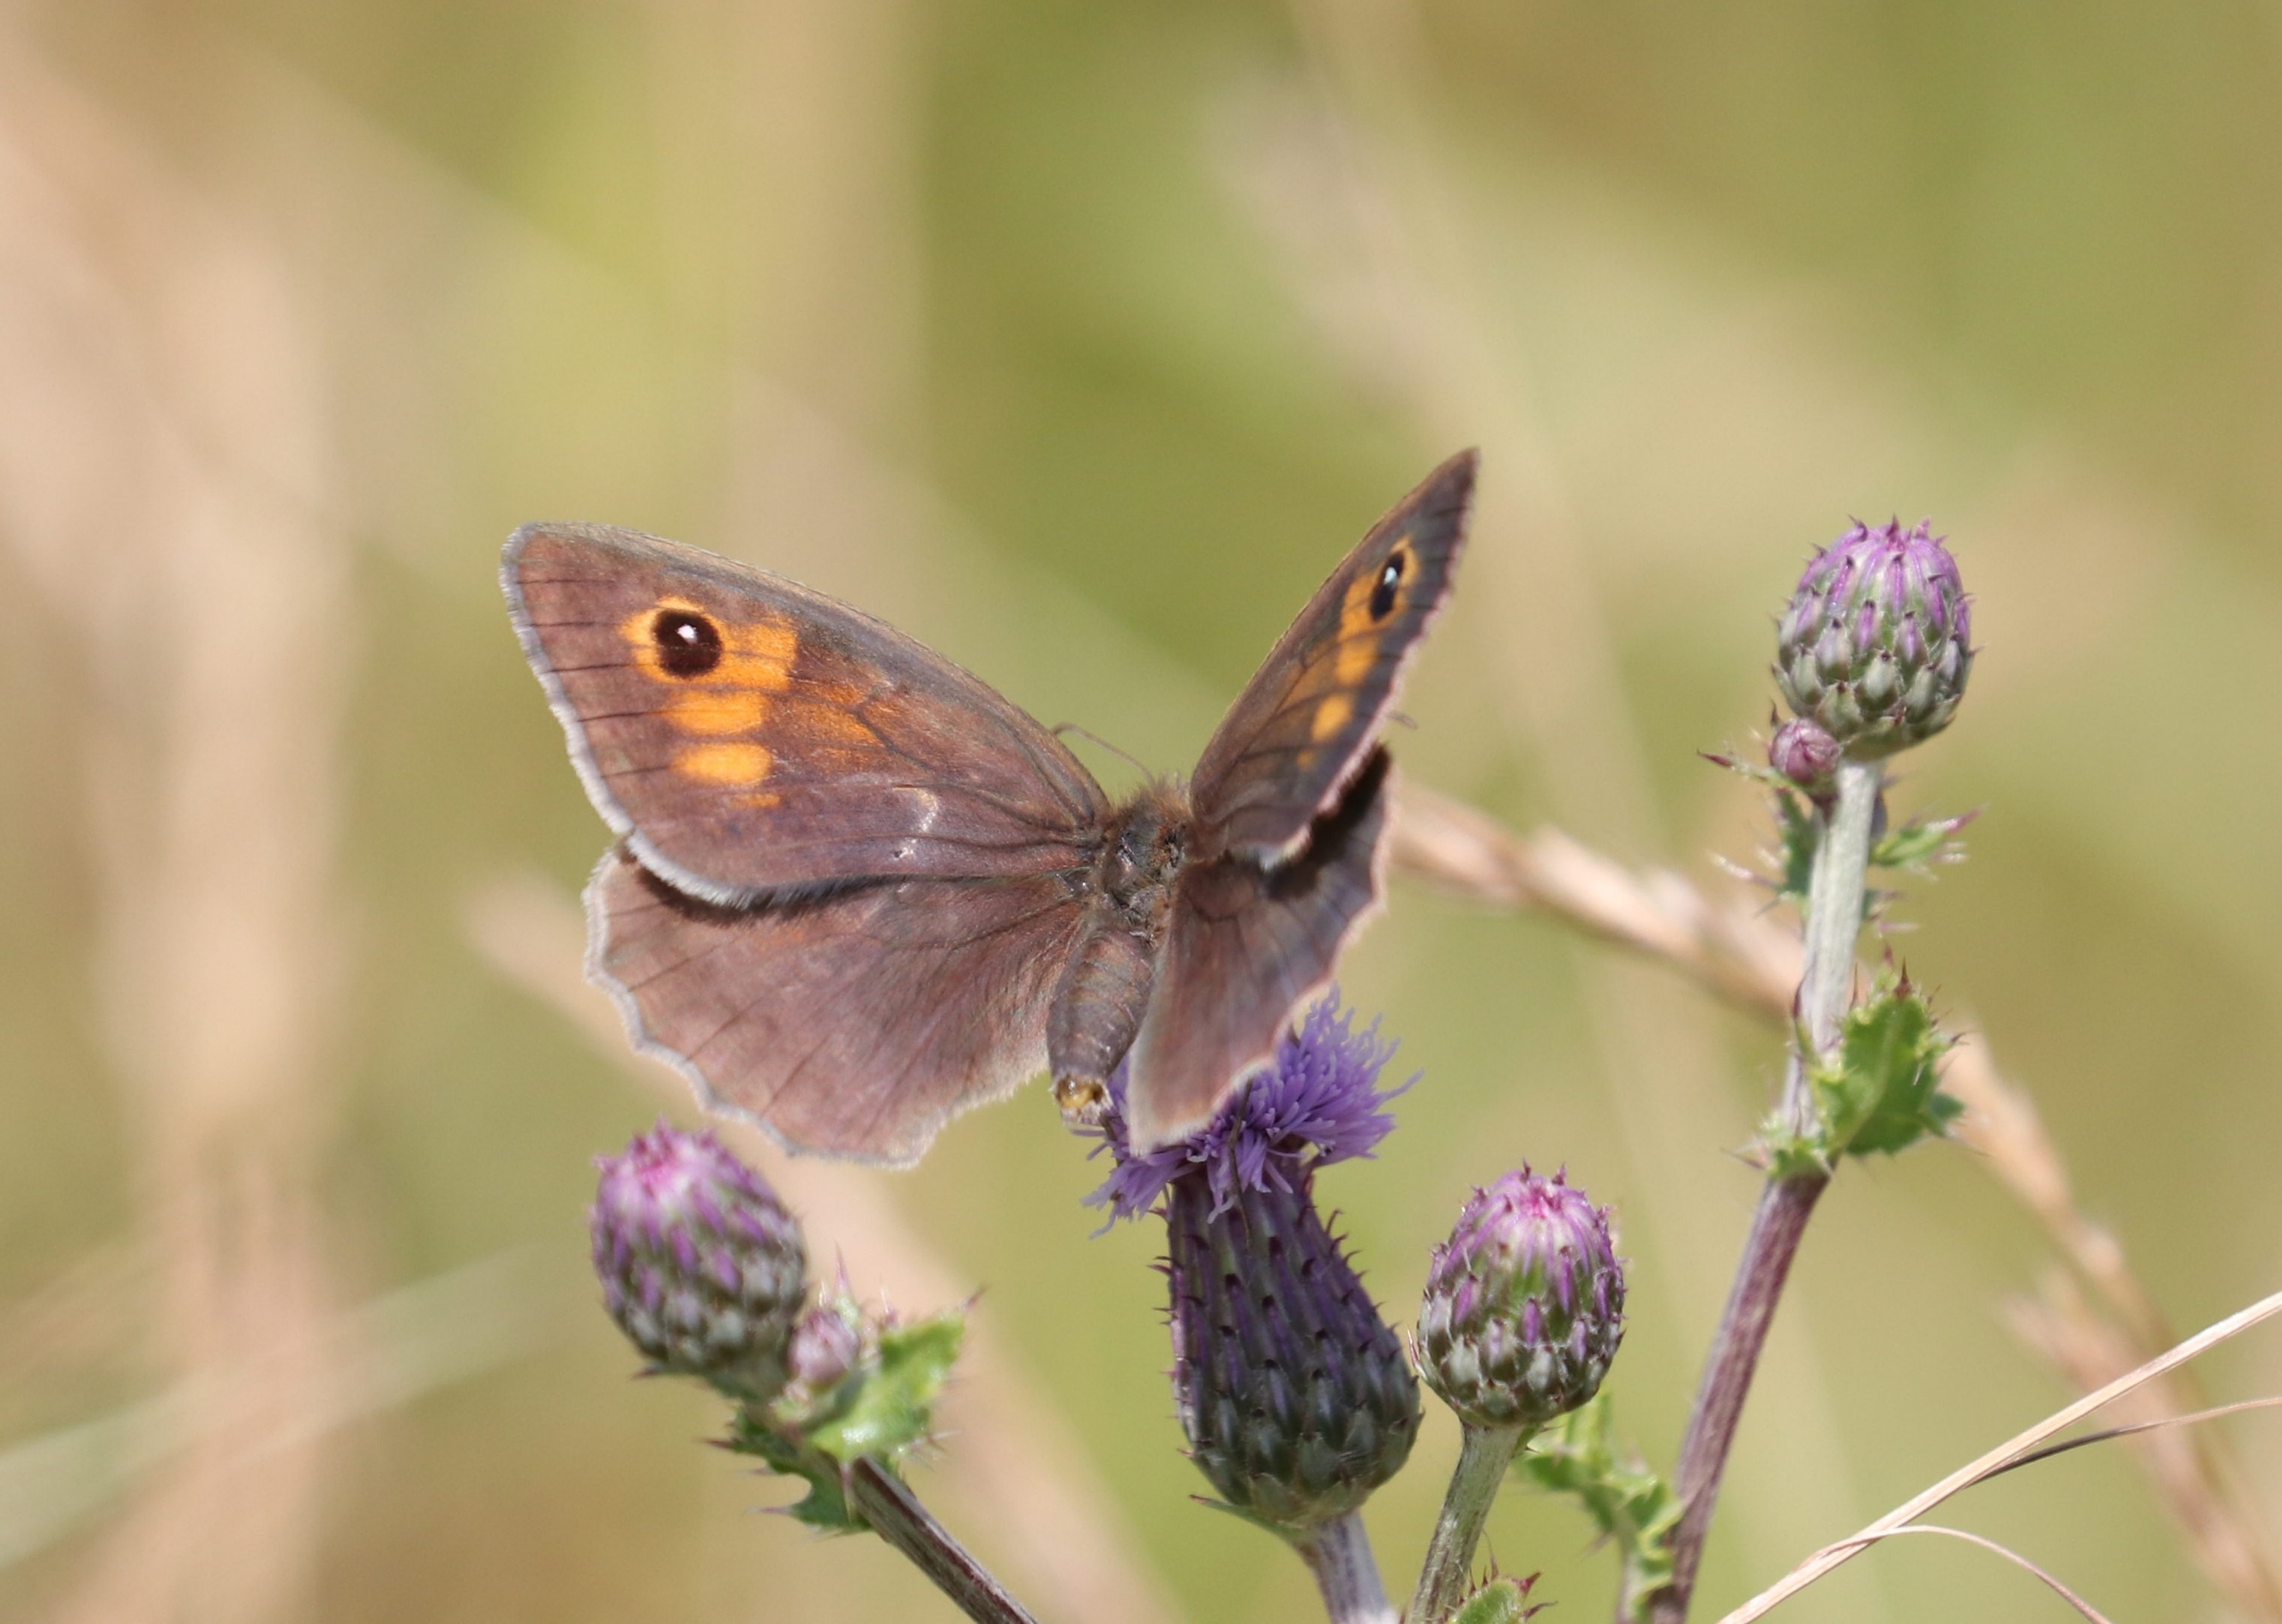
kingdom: Animalia
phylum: Arthropoda
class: Insecta
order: Lepidoptera
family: Nymphalidae
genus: Maniola
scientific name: Maniola jurtina
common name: Græsrandøje
